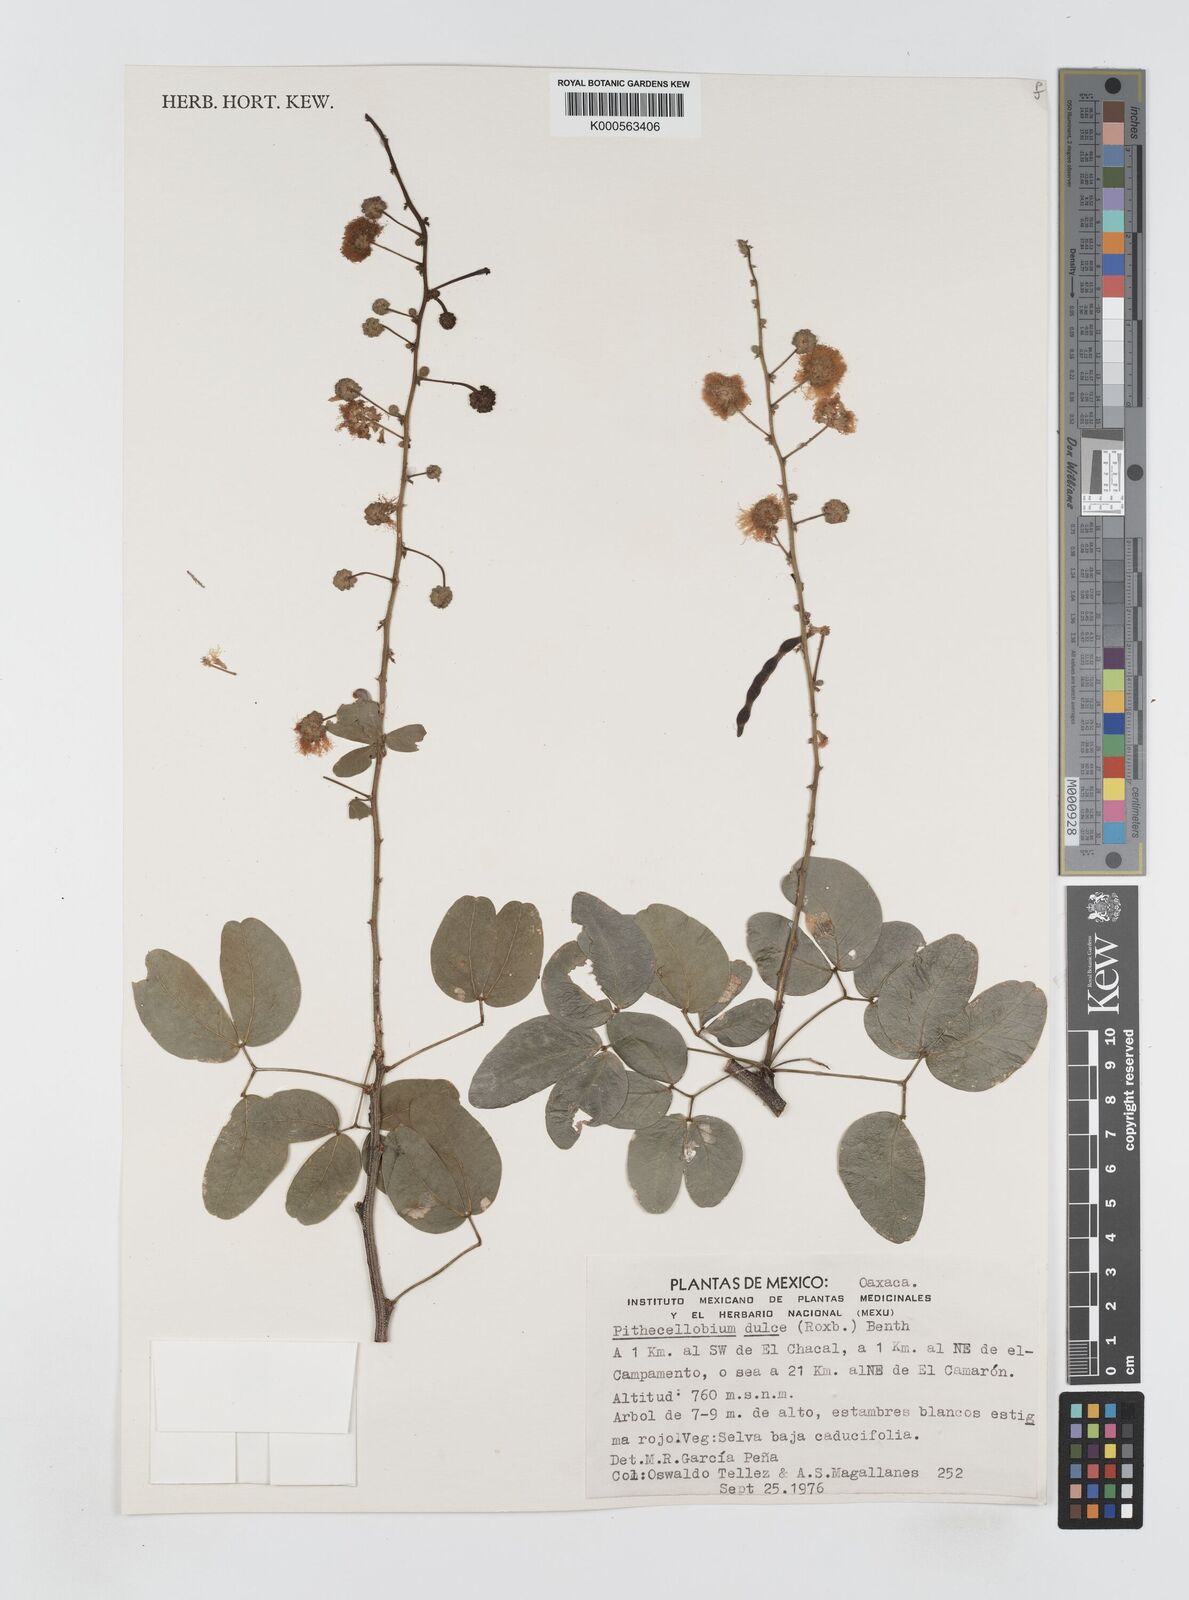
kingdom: Plantae
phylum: Tracheophyta
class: Magnoliopsida
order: Fabales
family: Fabaceae
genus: Pithecellobium
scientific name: Pithecellobium dulce
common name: Monkeypod
